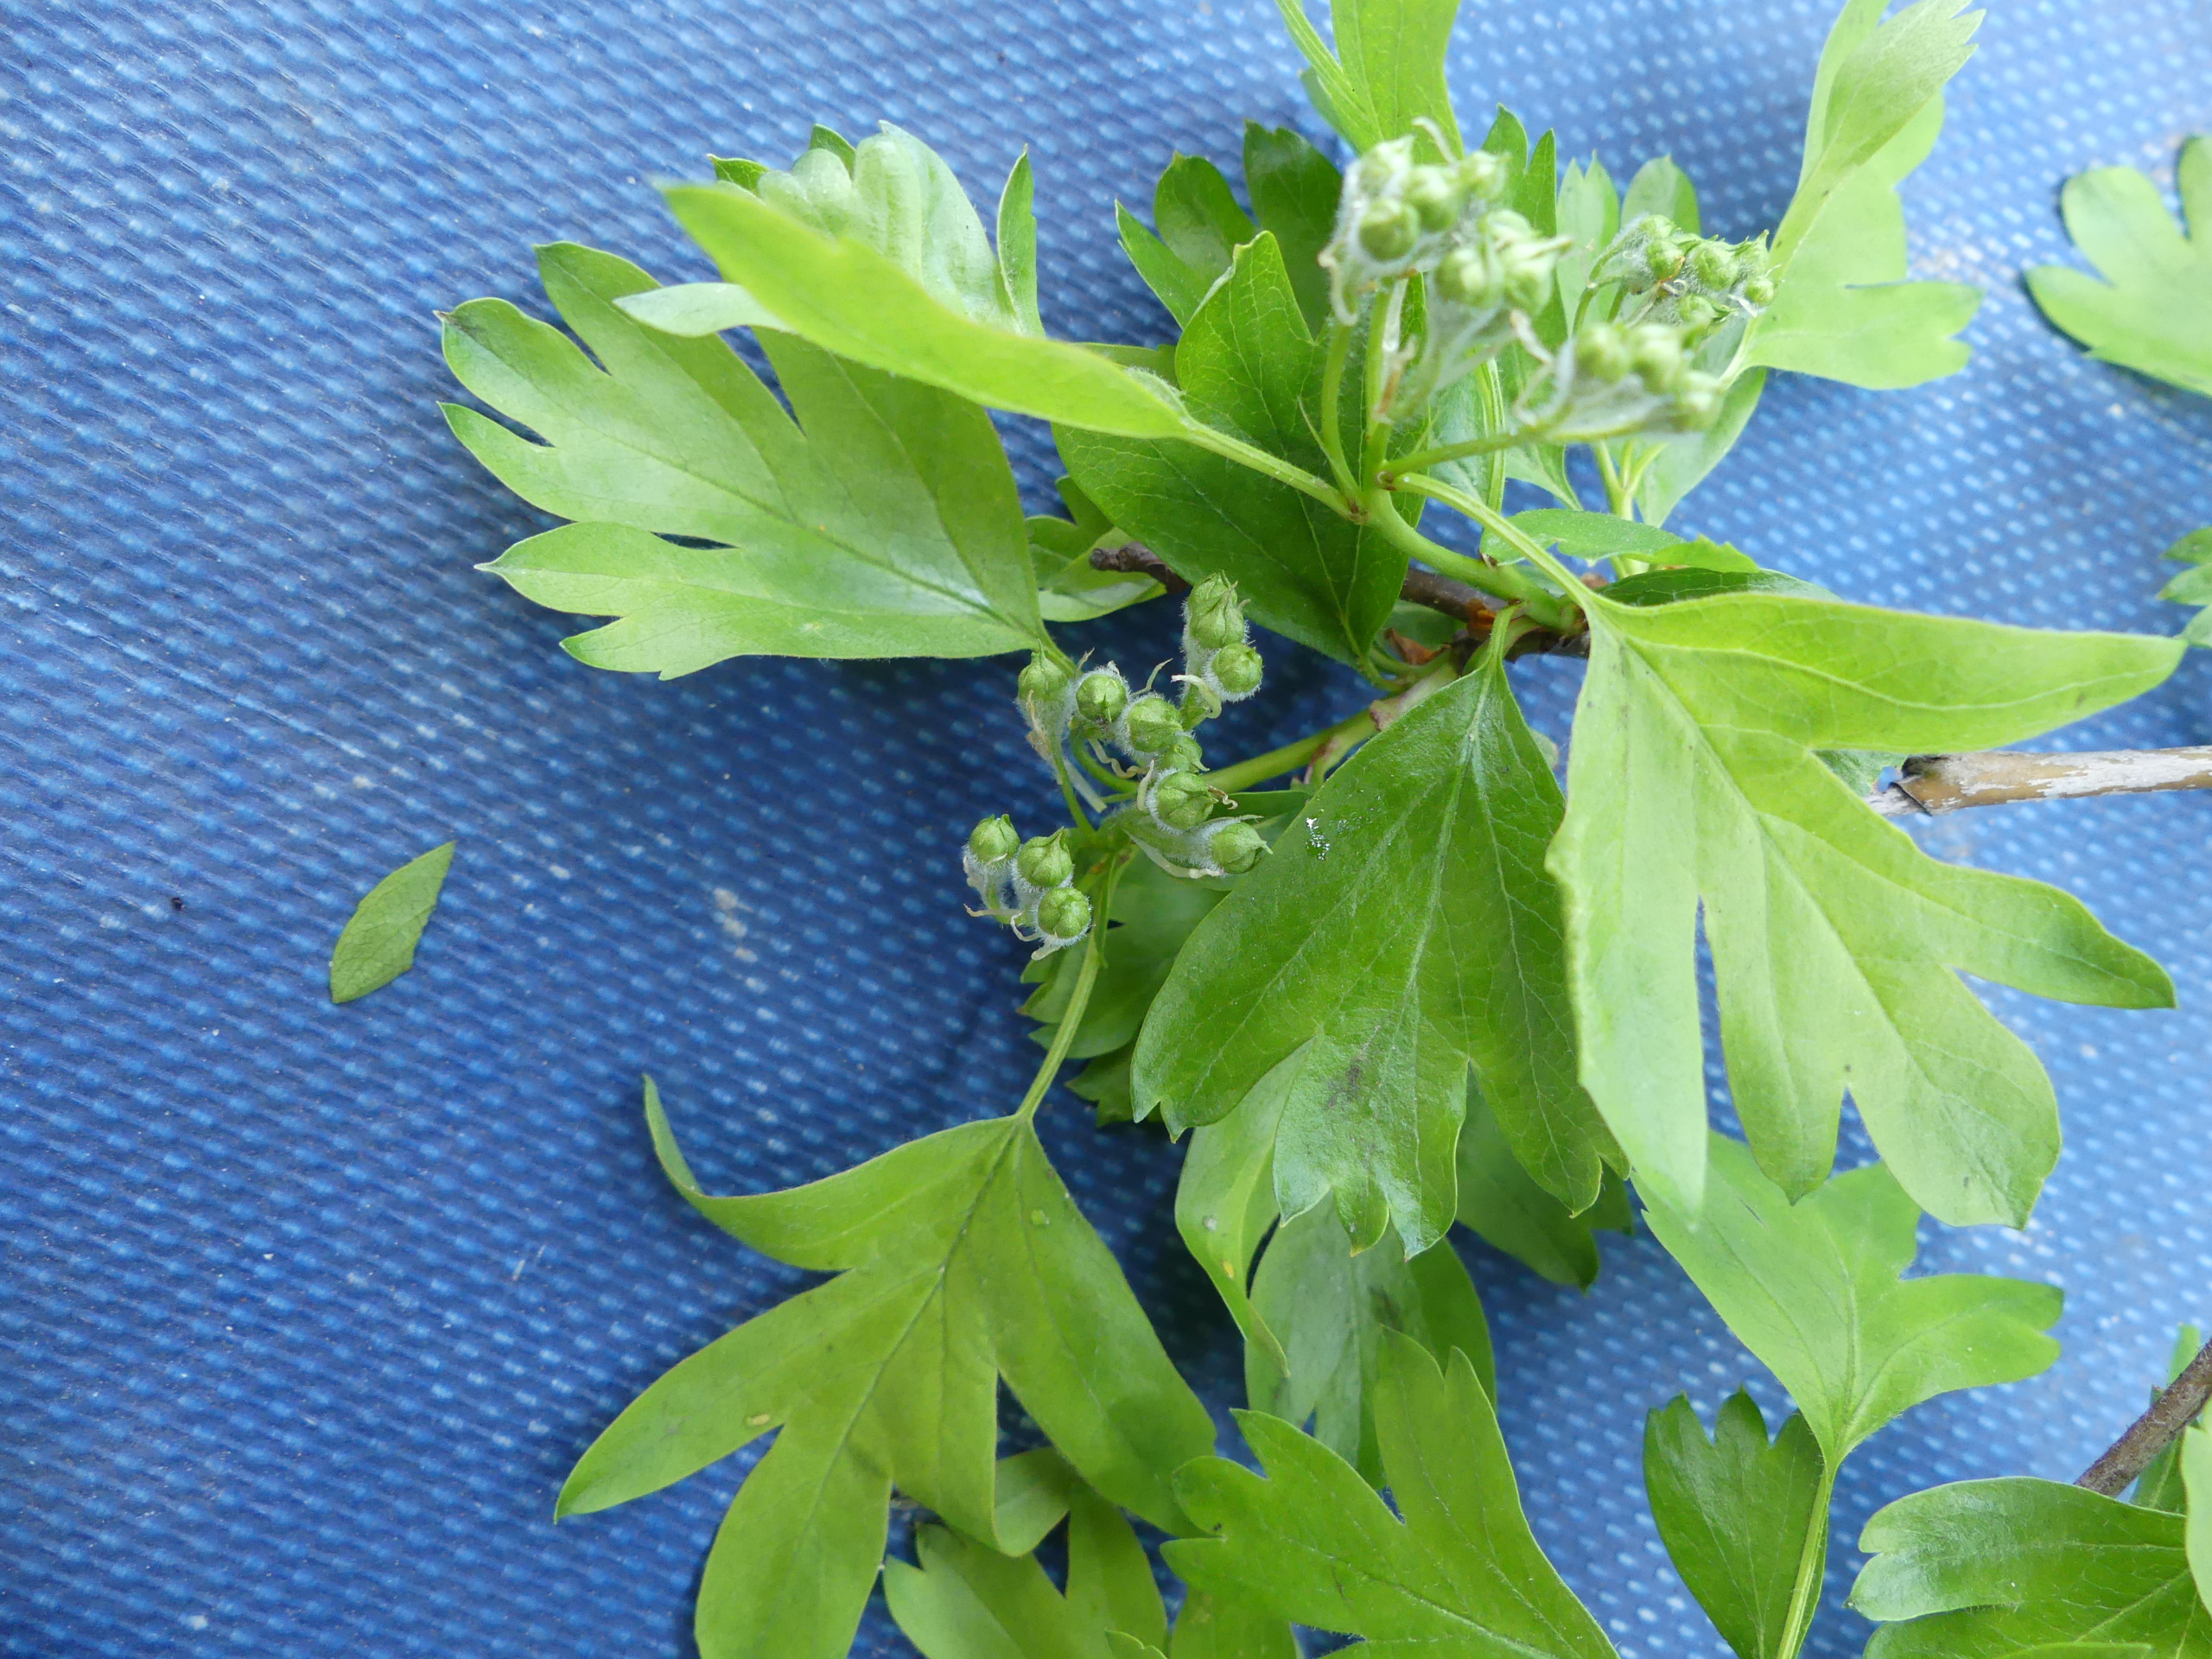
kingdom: Plantae
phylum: Tracheophyta
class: Magnoliopsida
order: Rosales
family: Rosaceae
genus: Crataegus
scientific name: Crataegus monogyna
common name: Engriflet hvidtjørn
